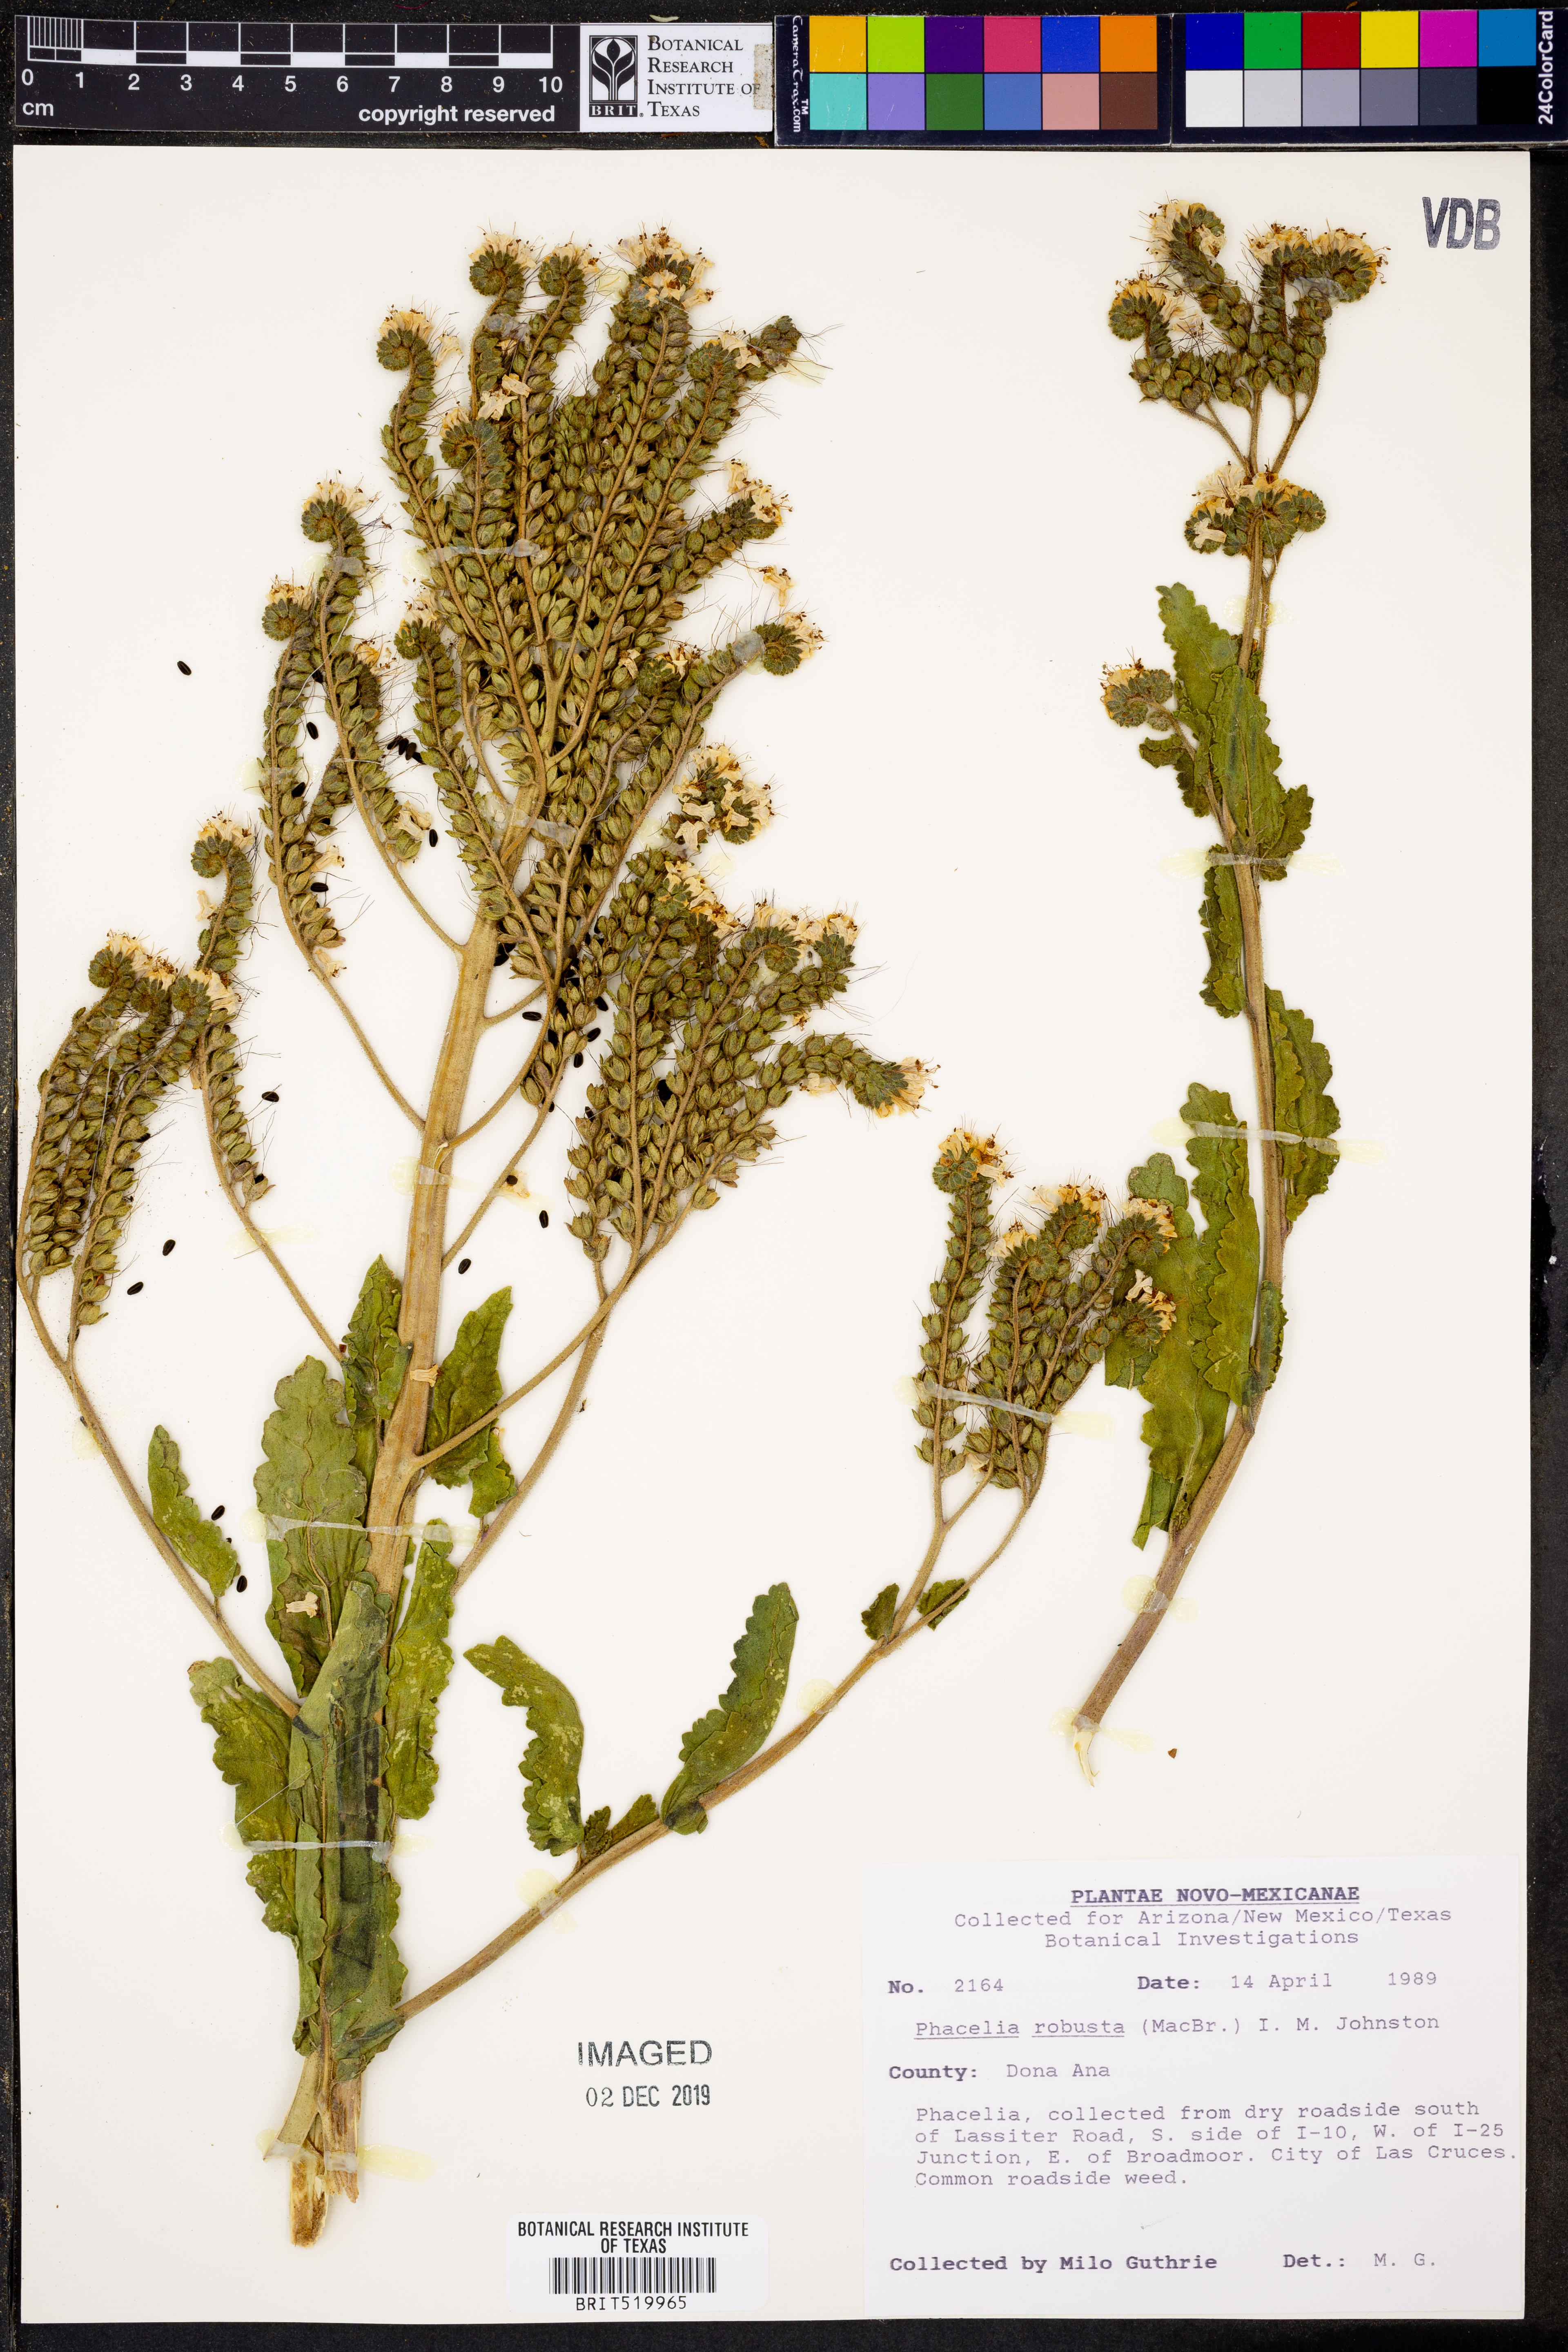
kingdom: Plantae
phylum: Tracheophyta
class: Magnoliopsida
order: Boraginales
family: Hydrophyllaceae
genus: Phacelia
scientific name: Phacelia robusta
